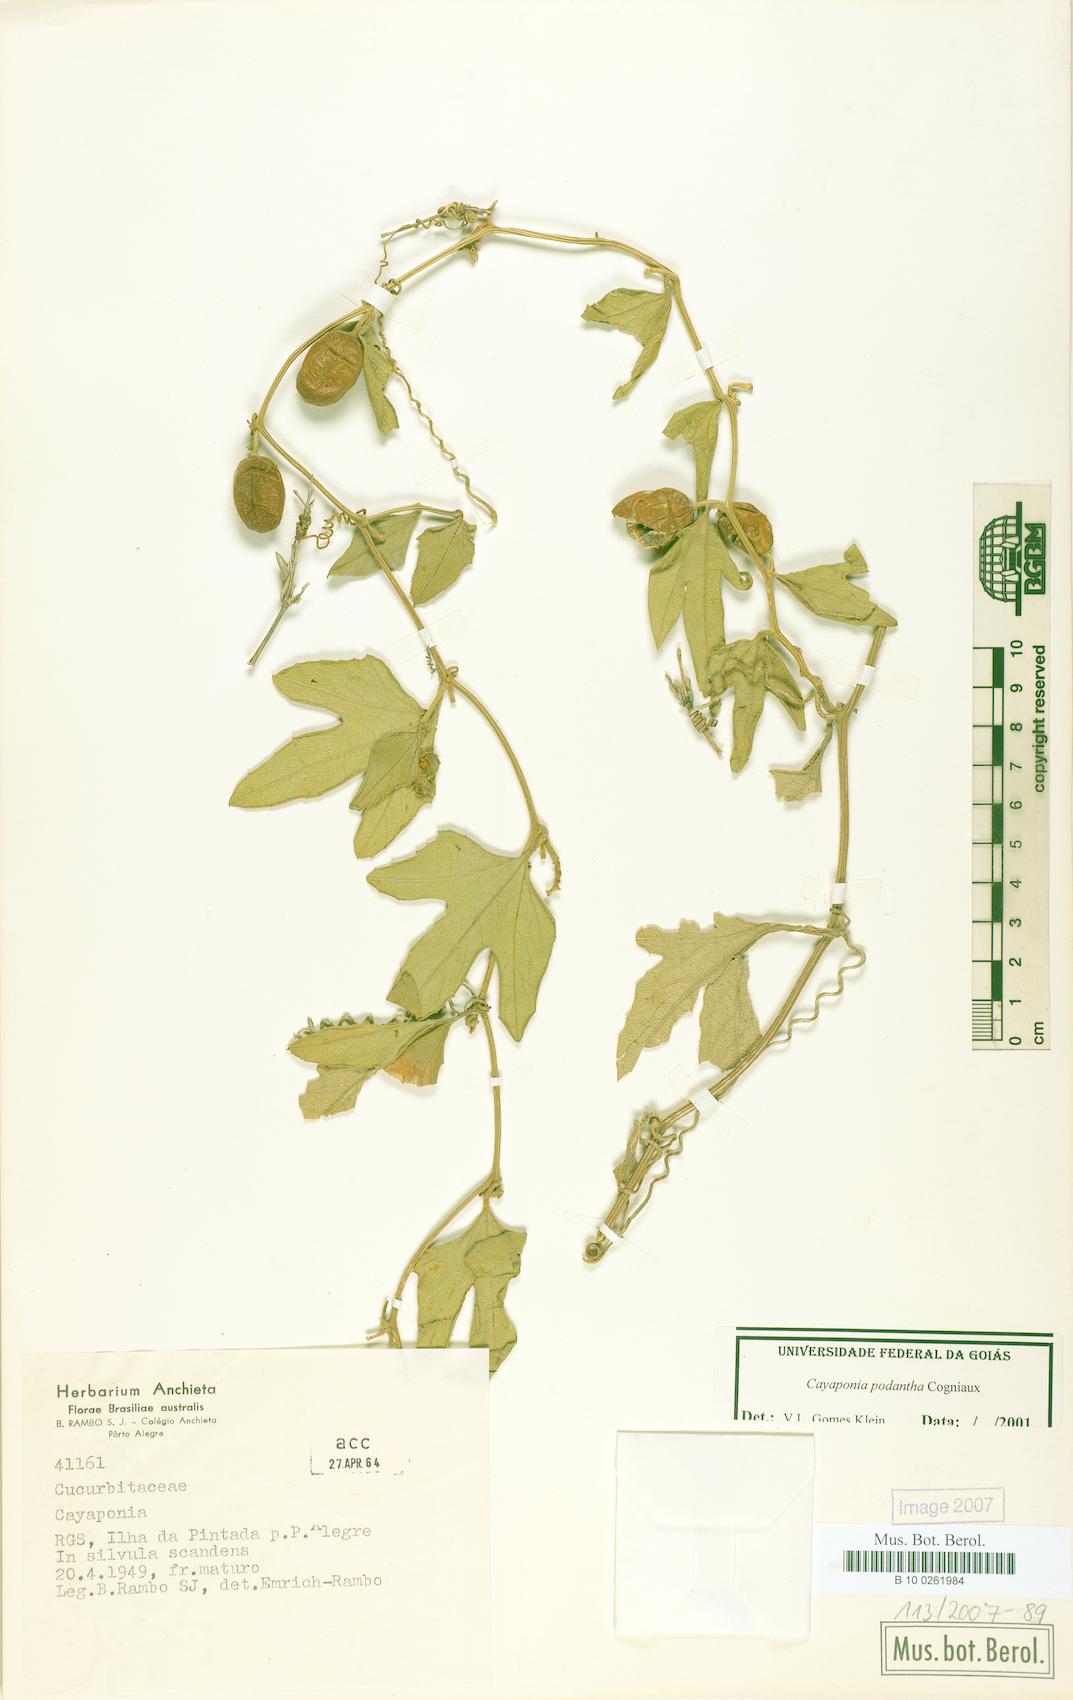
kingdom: Plantae
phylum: Tracheophyta
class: Magnoliopsida
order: Cucurbitales
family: Cucurbitaceae
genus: Cayaponia
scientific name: Cayaponia podantha
